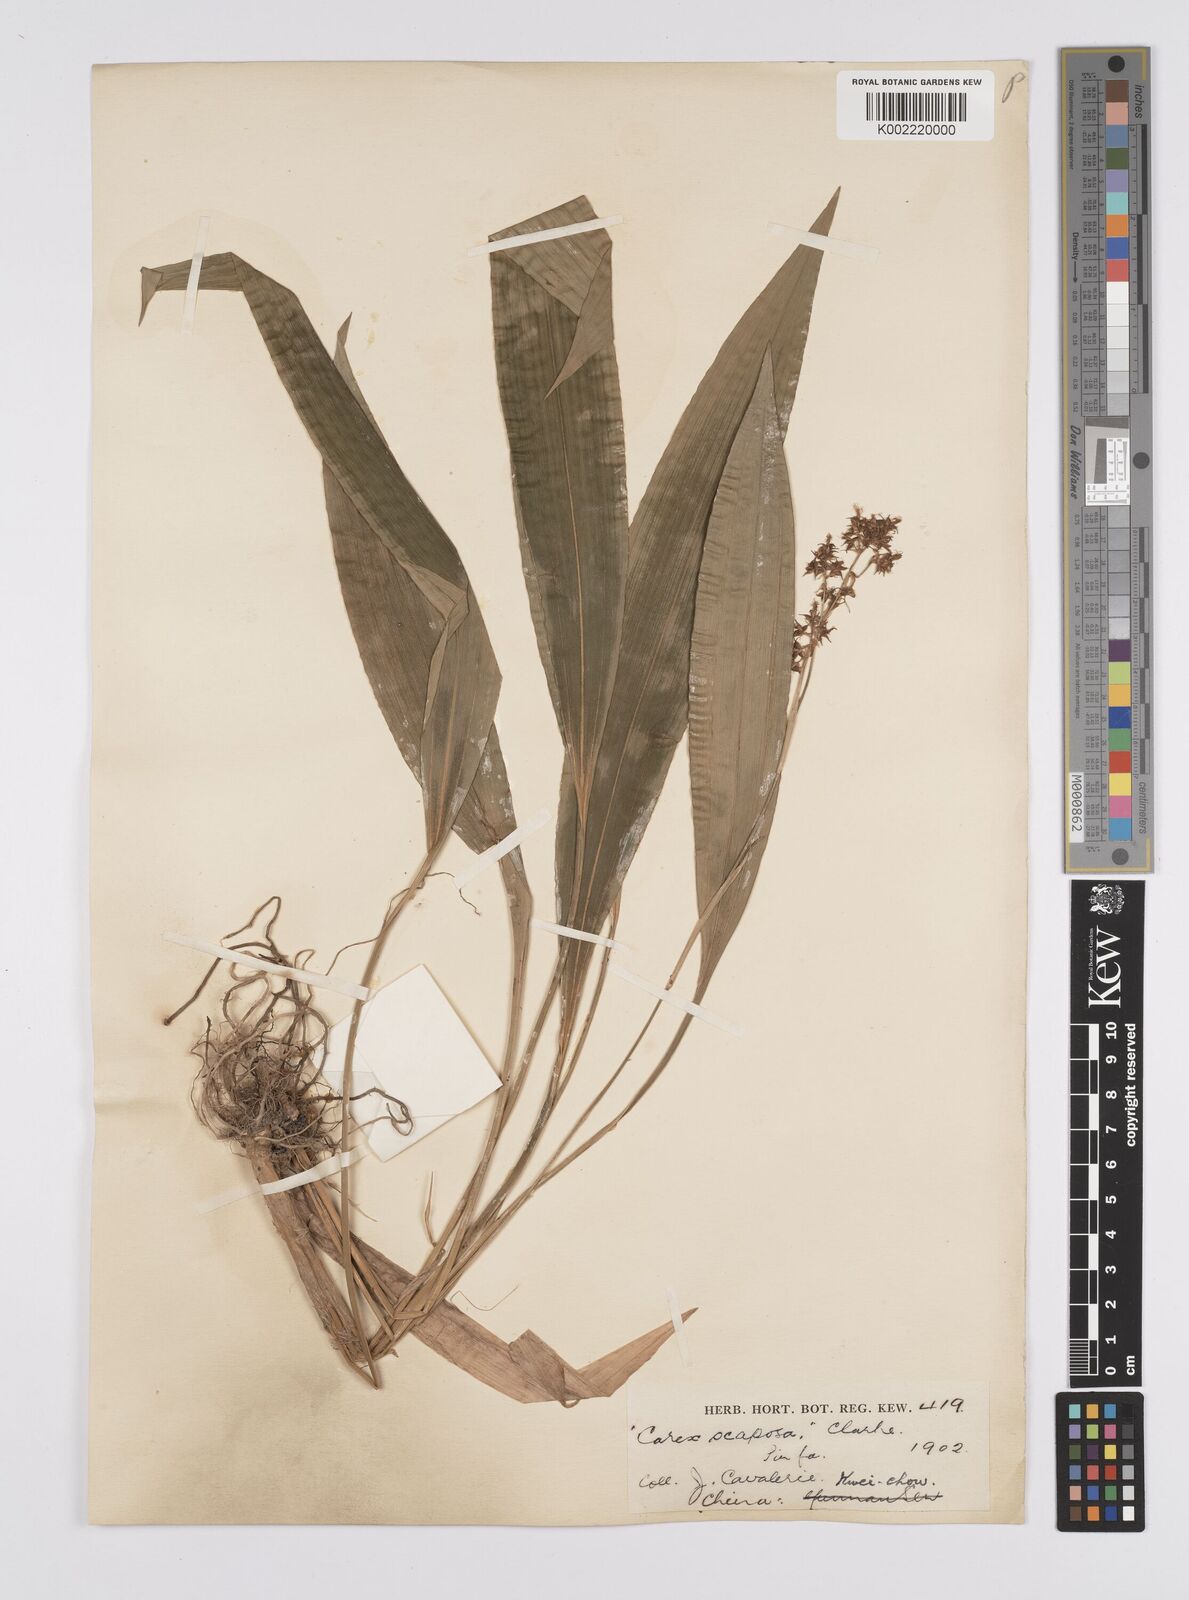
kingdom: Plantae
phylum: Tracheophyta
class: Liliopsida
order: Poales
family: Cyperaceae
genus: Carex
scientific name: Carex scaposa
